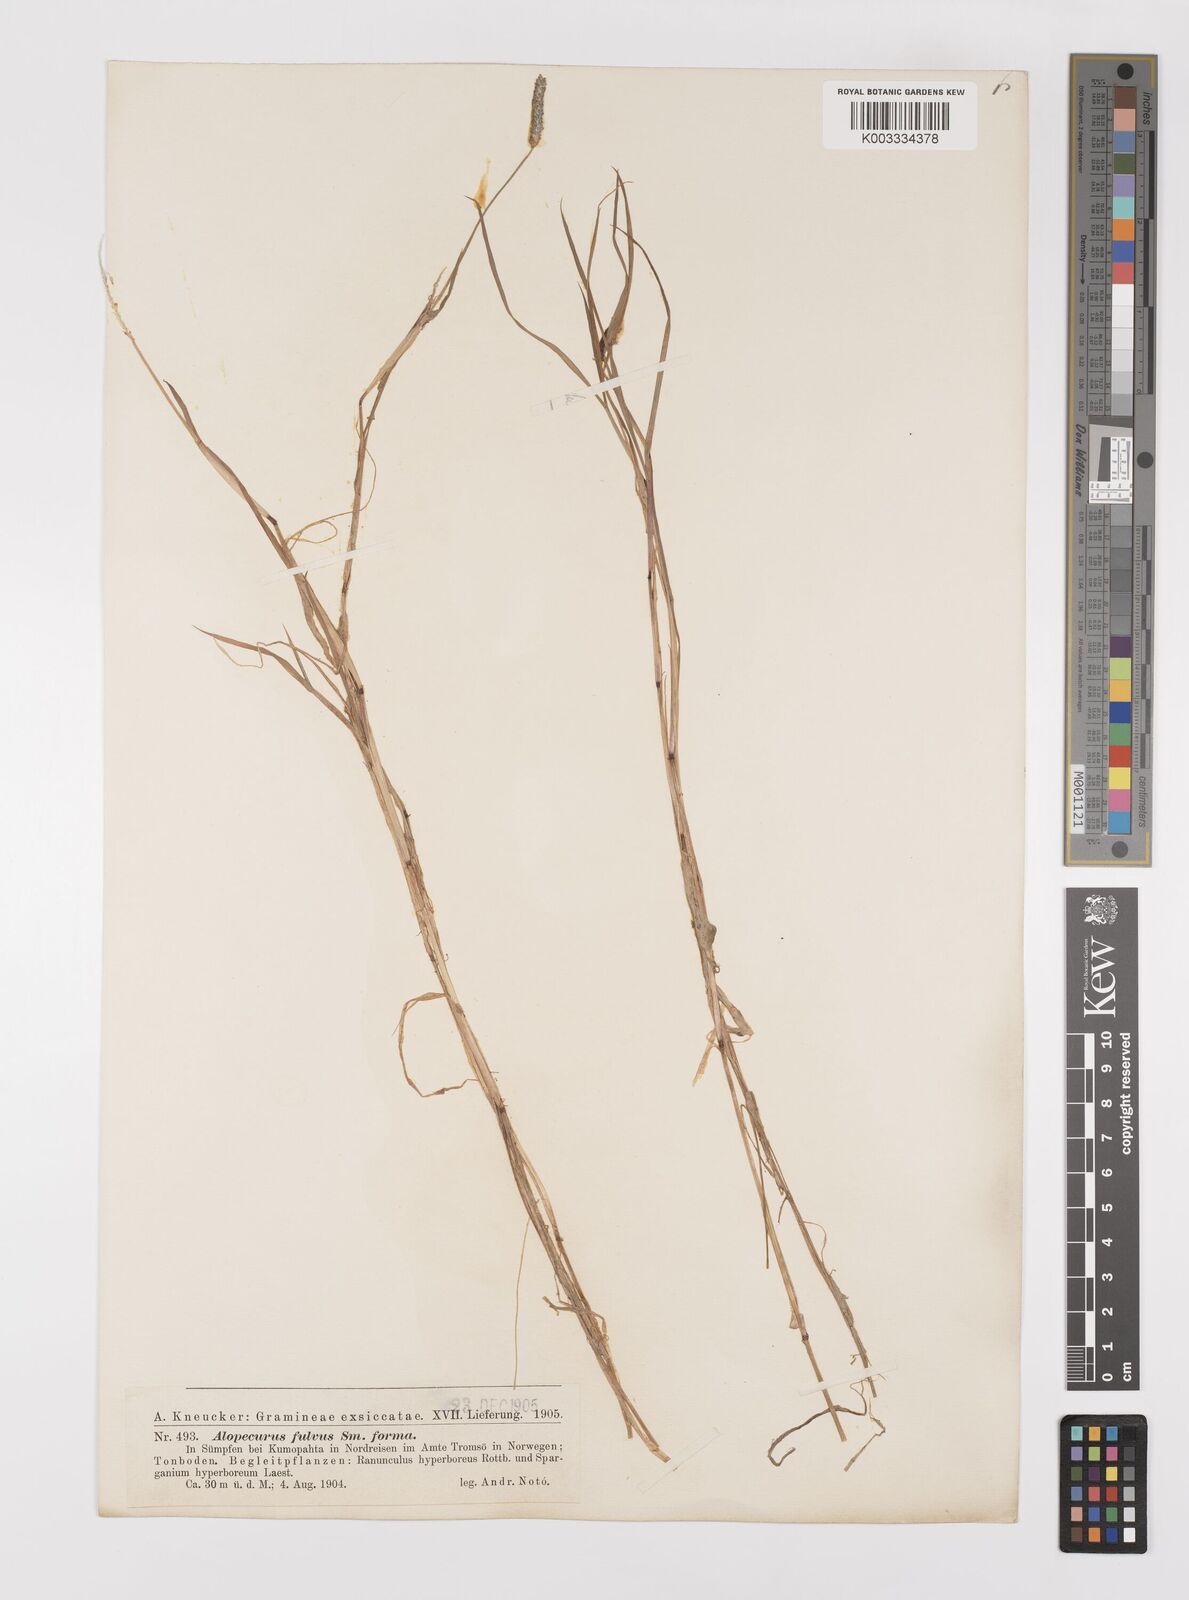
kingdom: Plantae
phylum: Tracheophyta
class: Liliopsida
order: Poales
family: Poaceae
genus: Alopecurus
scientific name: Alopecurus aequalis
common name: Orange foxtail
